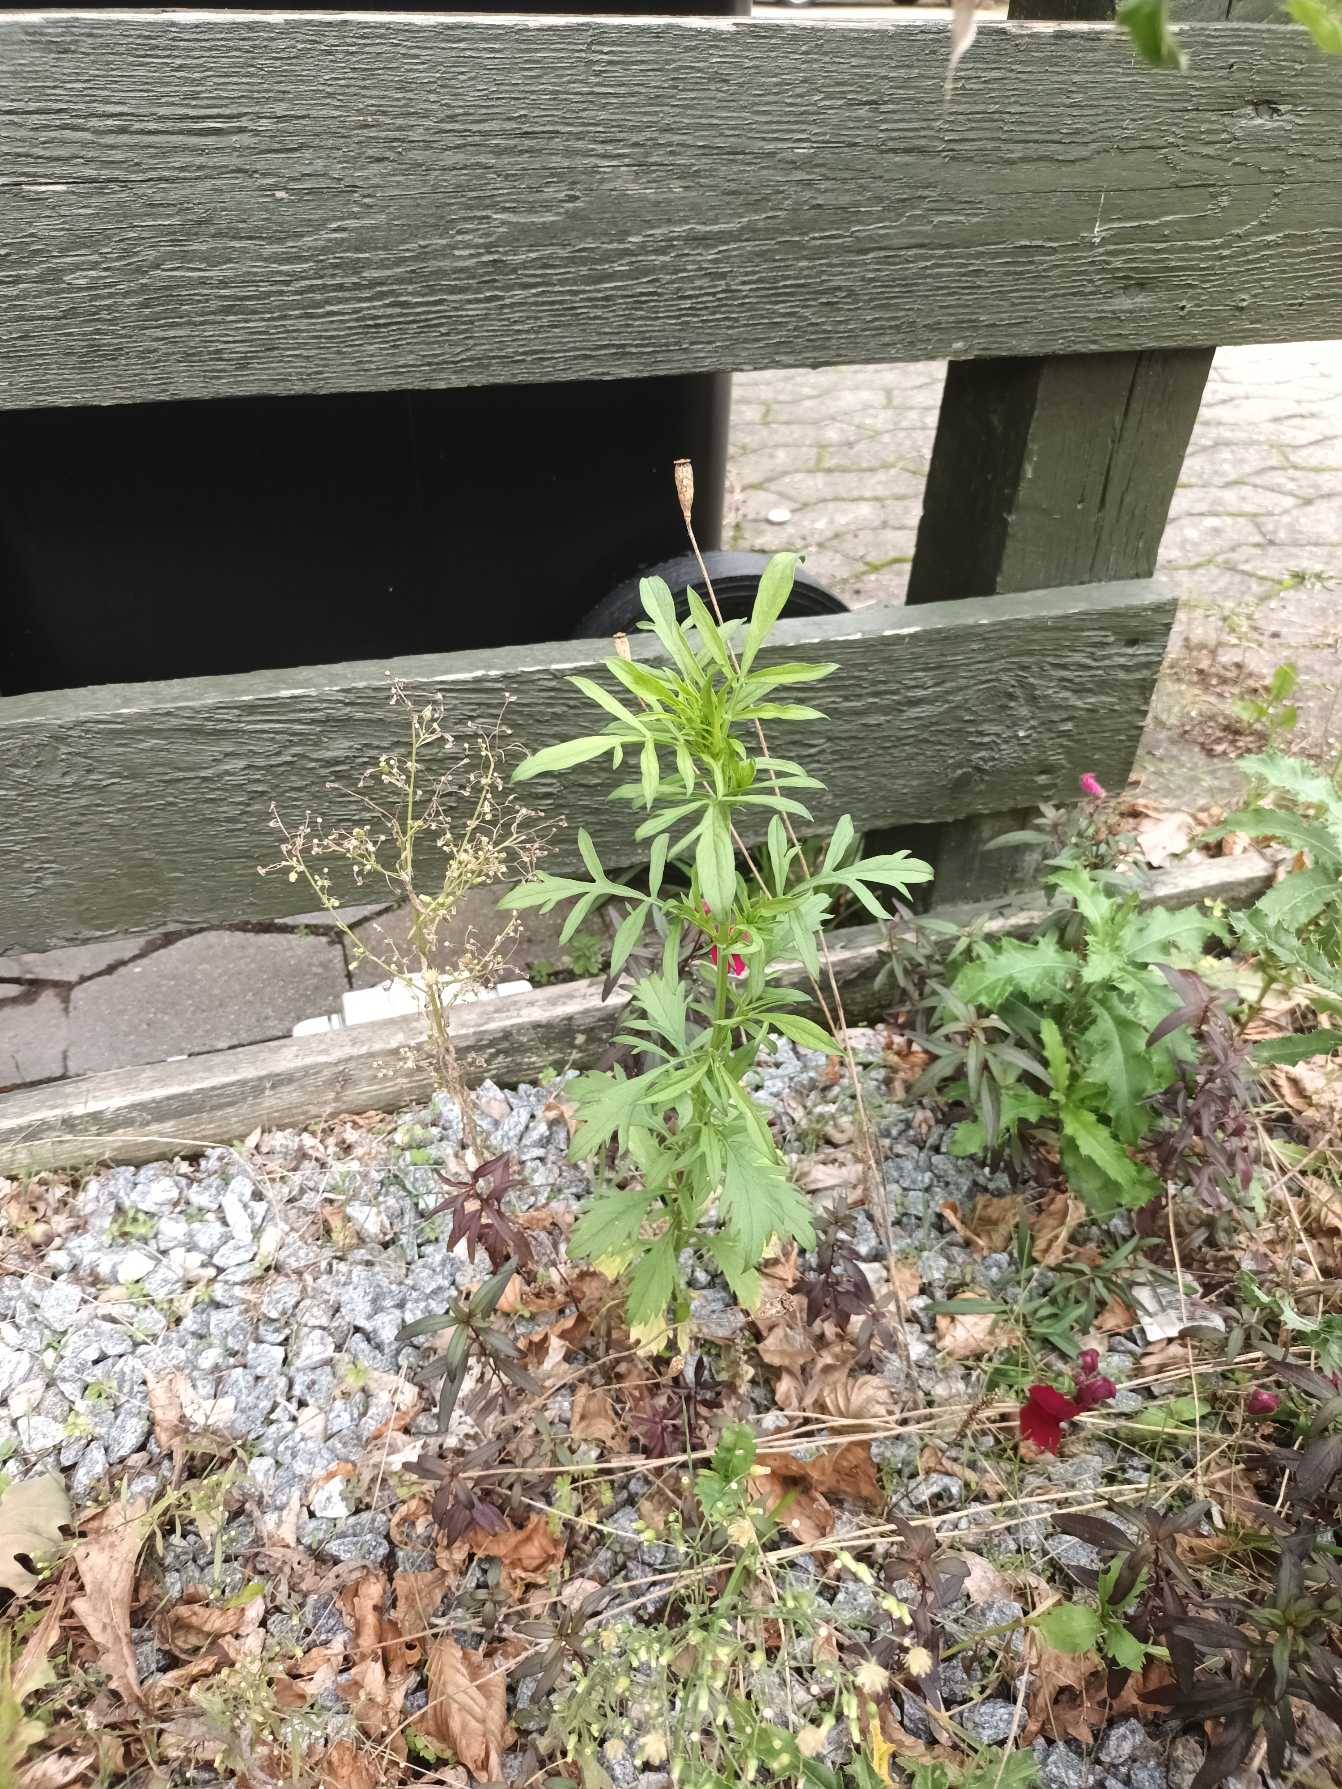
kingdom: Plantae
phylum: Tracheophyta
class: Magnoliopsida
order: Asterales
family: Asteraceae
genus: Tagetes
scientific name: Tagetes erecta
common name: Udspærret fløjlsblomst
